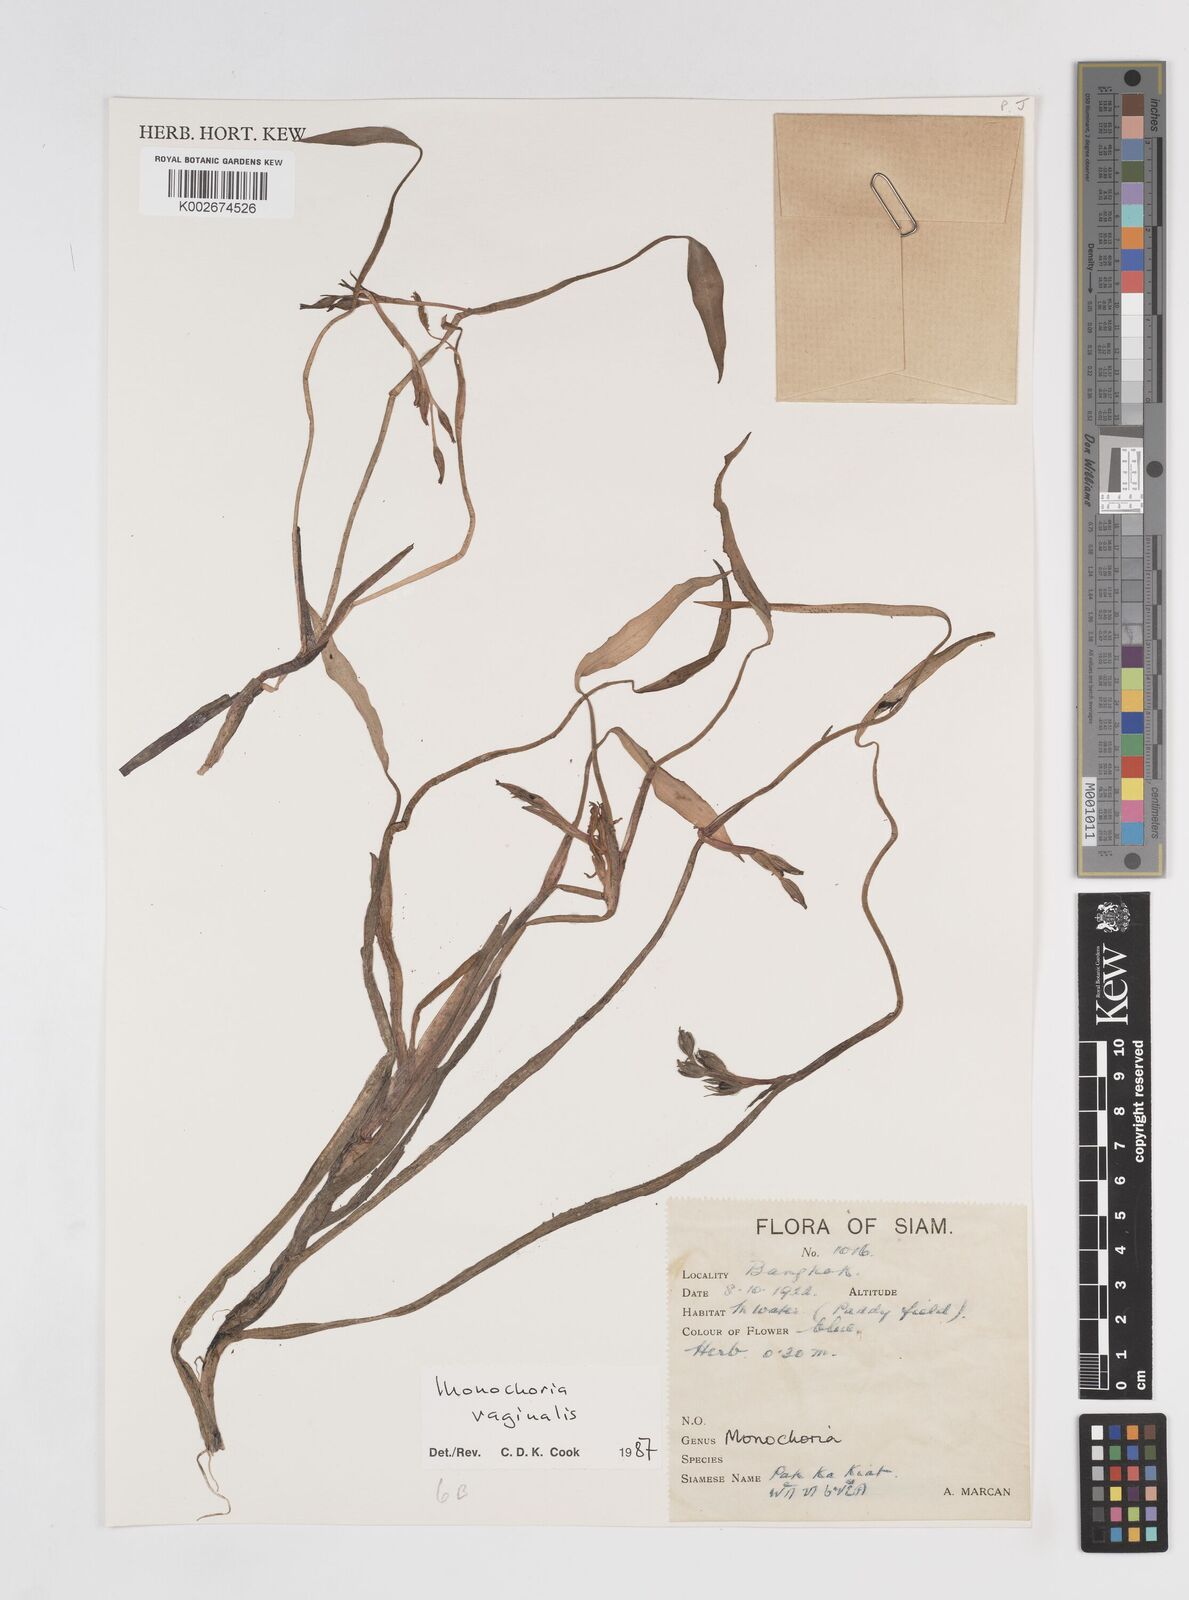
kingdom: Plantae
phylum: Tracheophyta
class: Liliopsida
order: Commelinales
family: Pontederiaceae
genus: Pontederia
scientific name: Pontederia vaginalis
